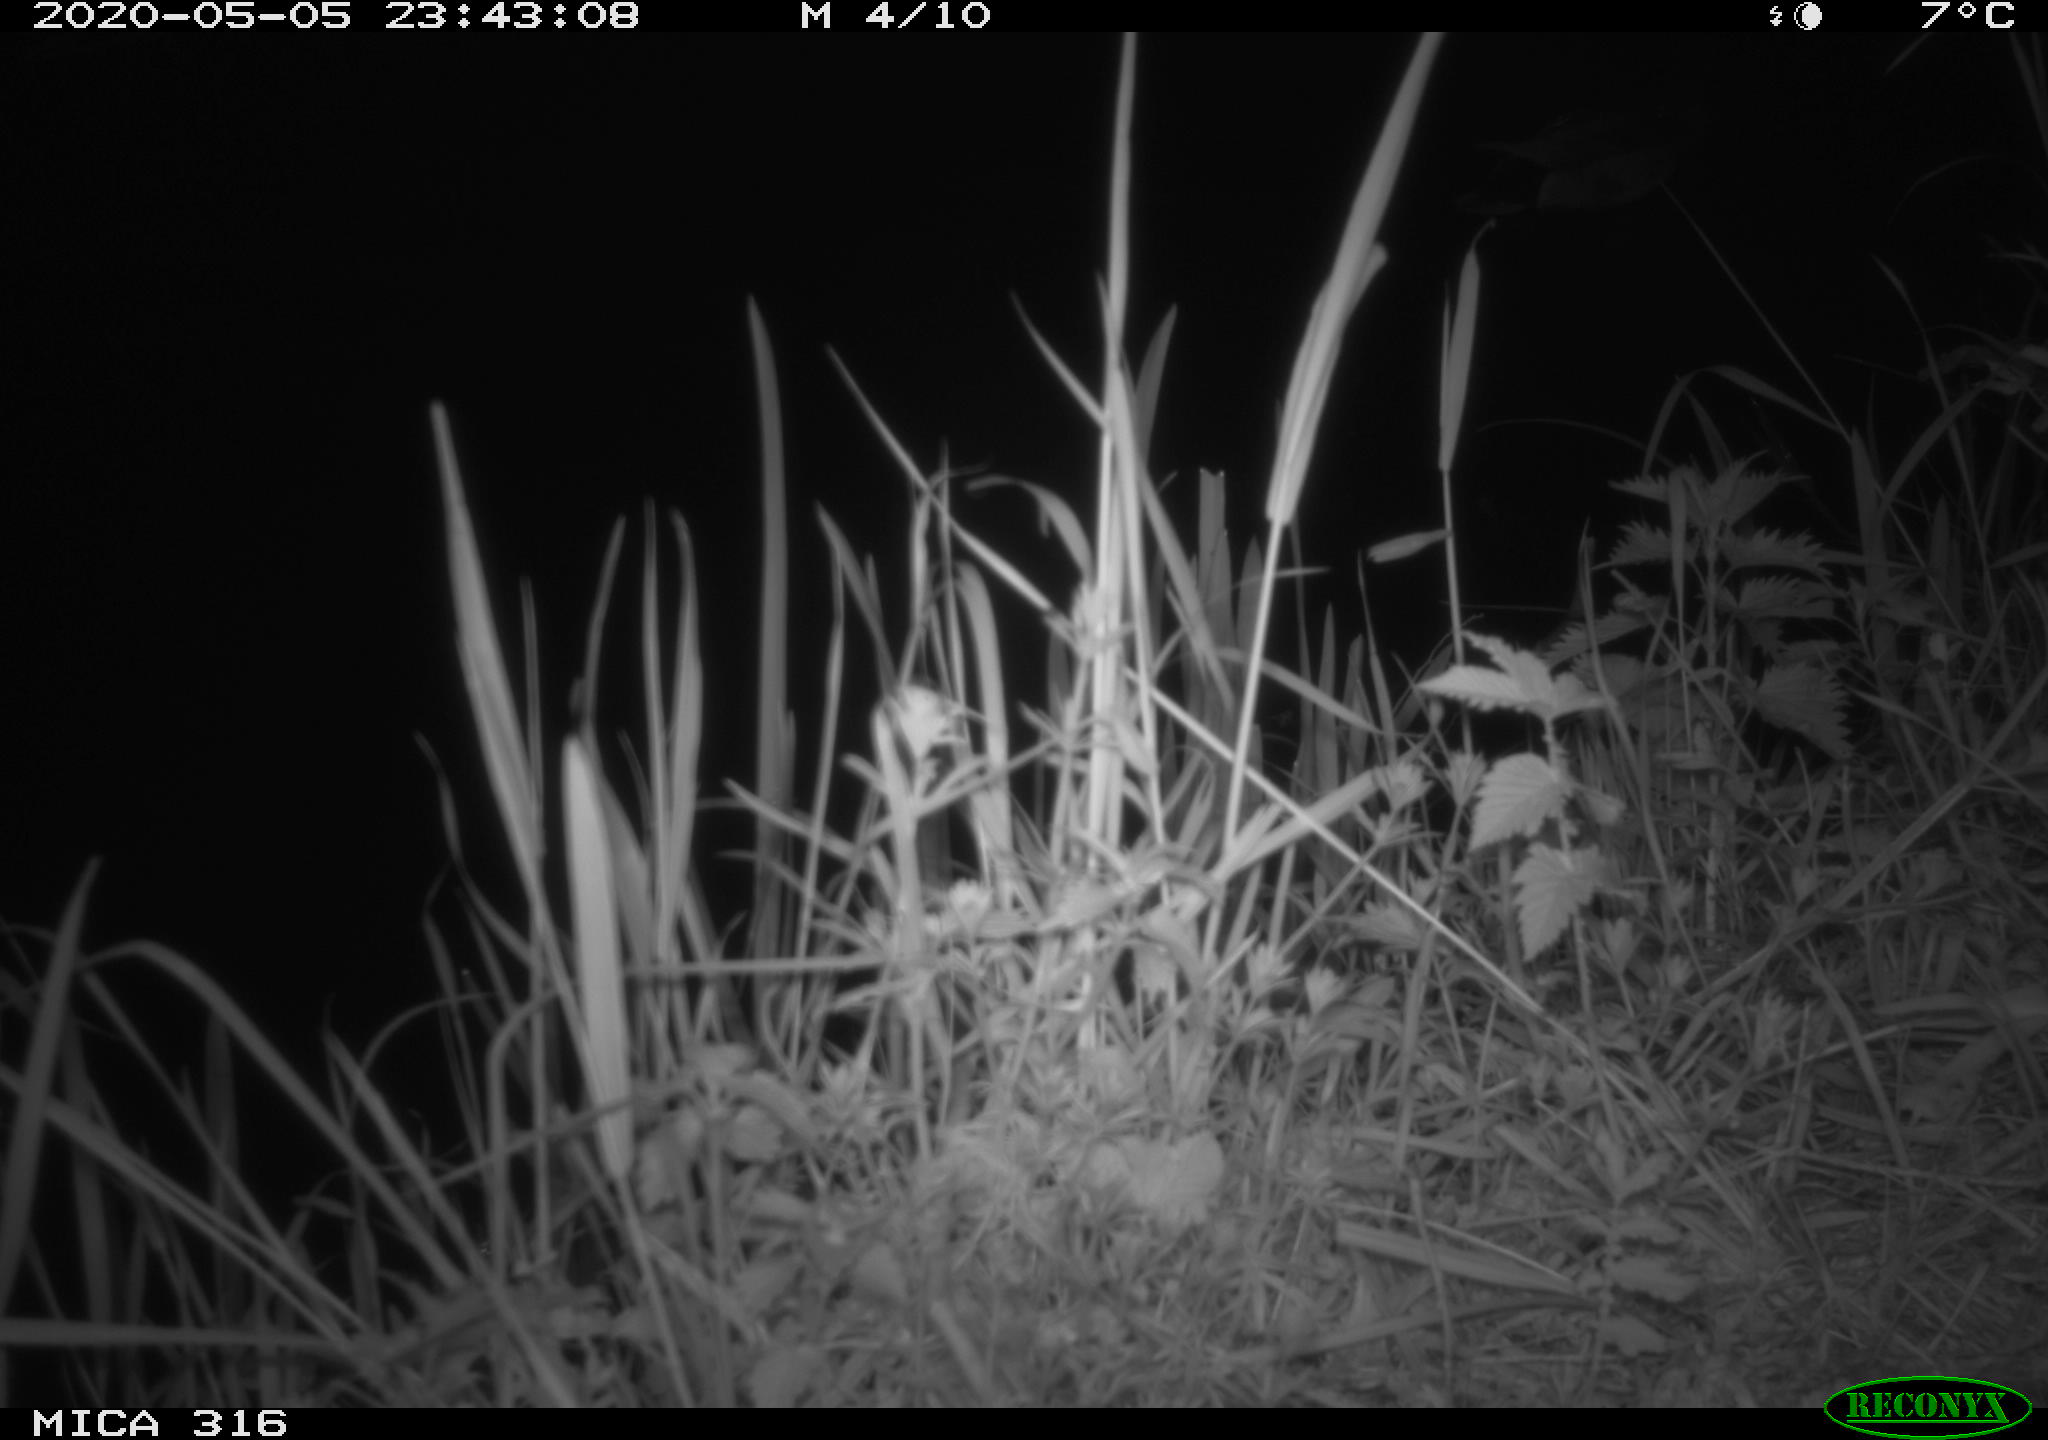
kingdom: Animalia
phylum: Chordata
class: Aves
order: Anseriformes
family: Anatidae
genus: Anas
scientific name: Anas platyrhynchos
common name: Mallard
